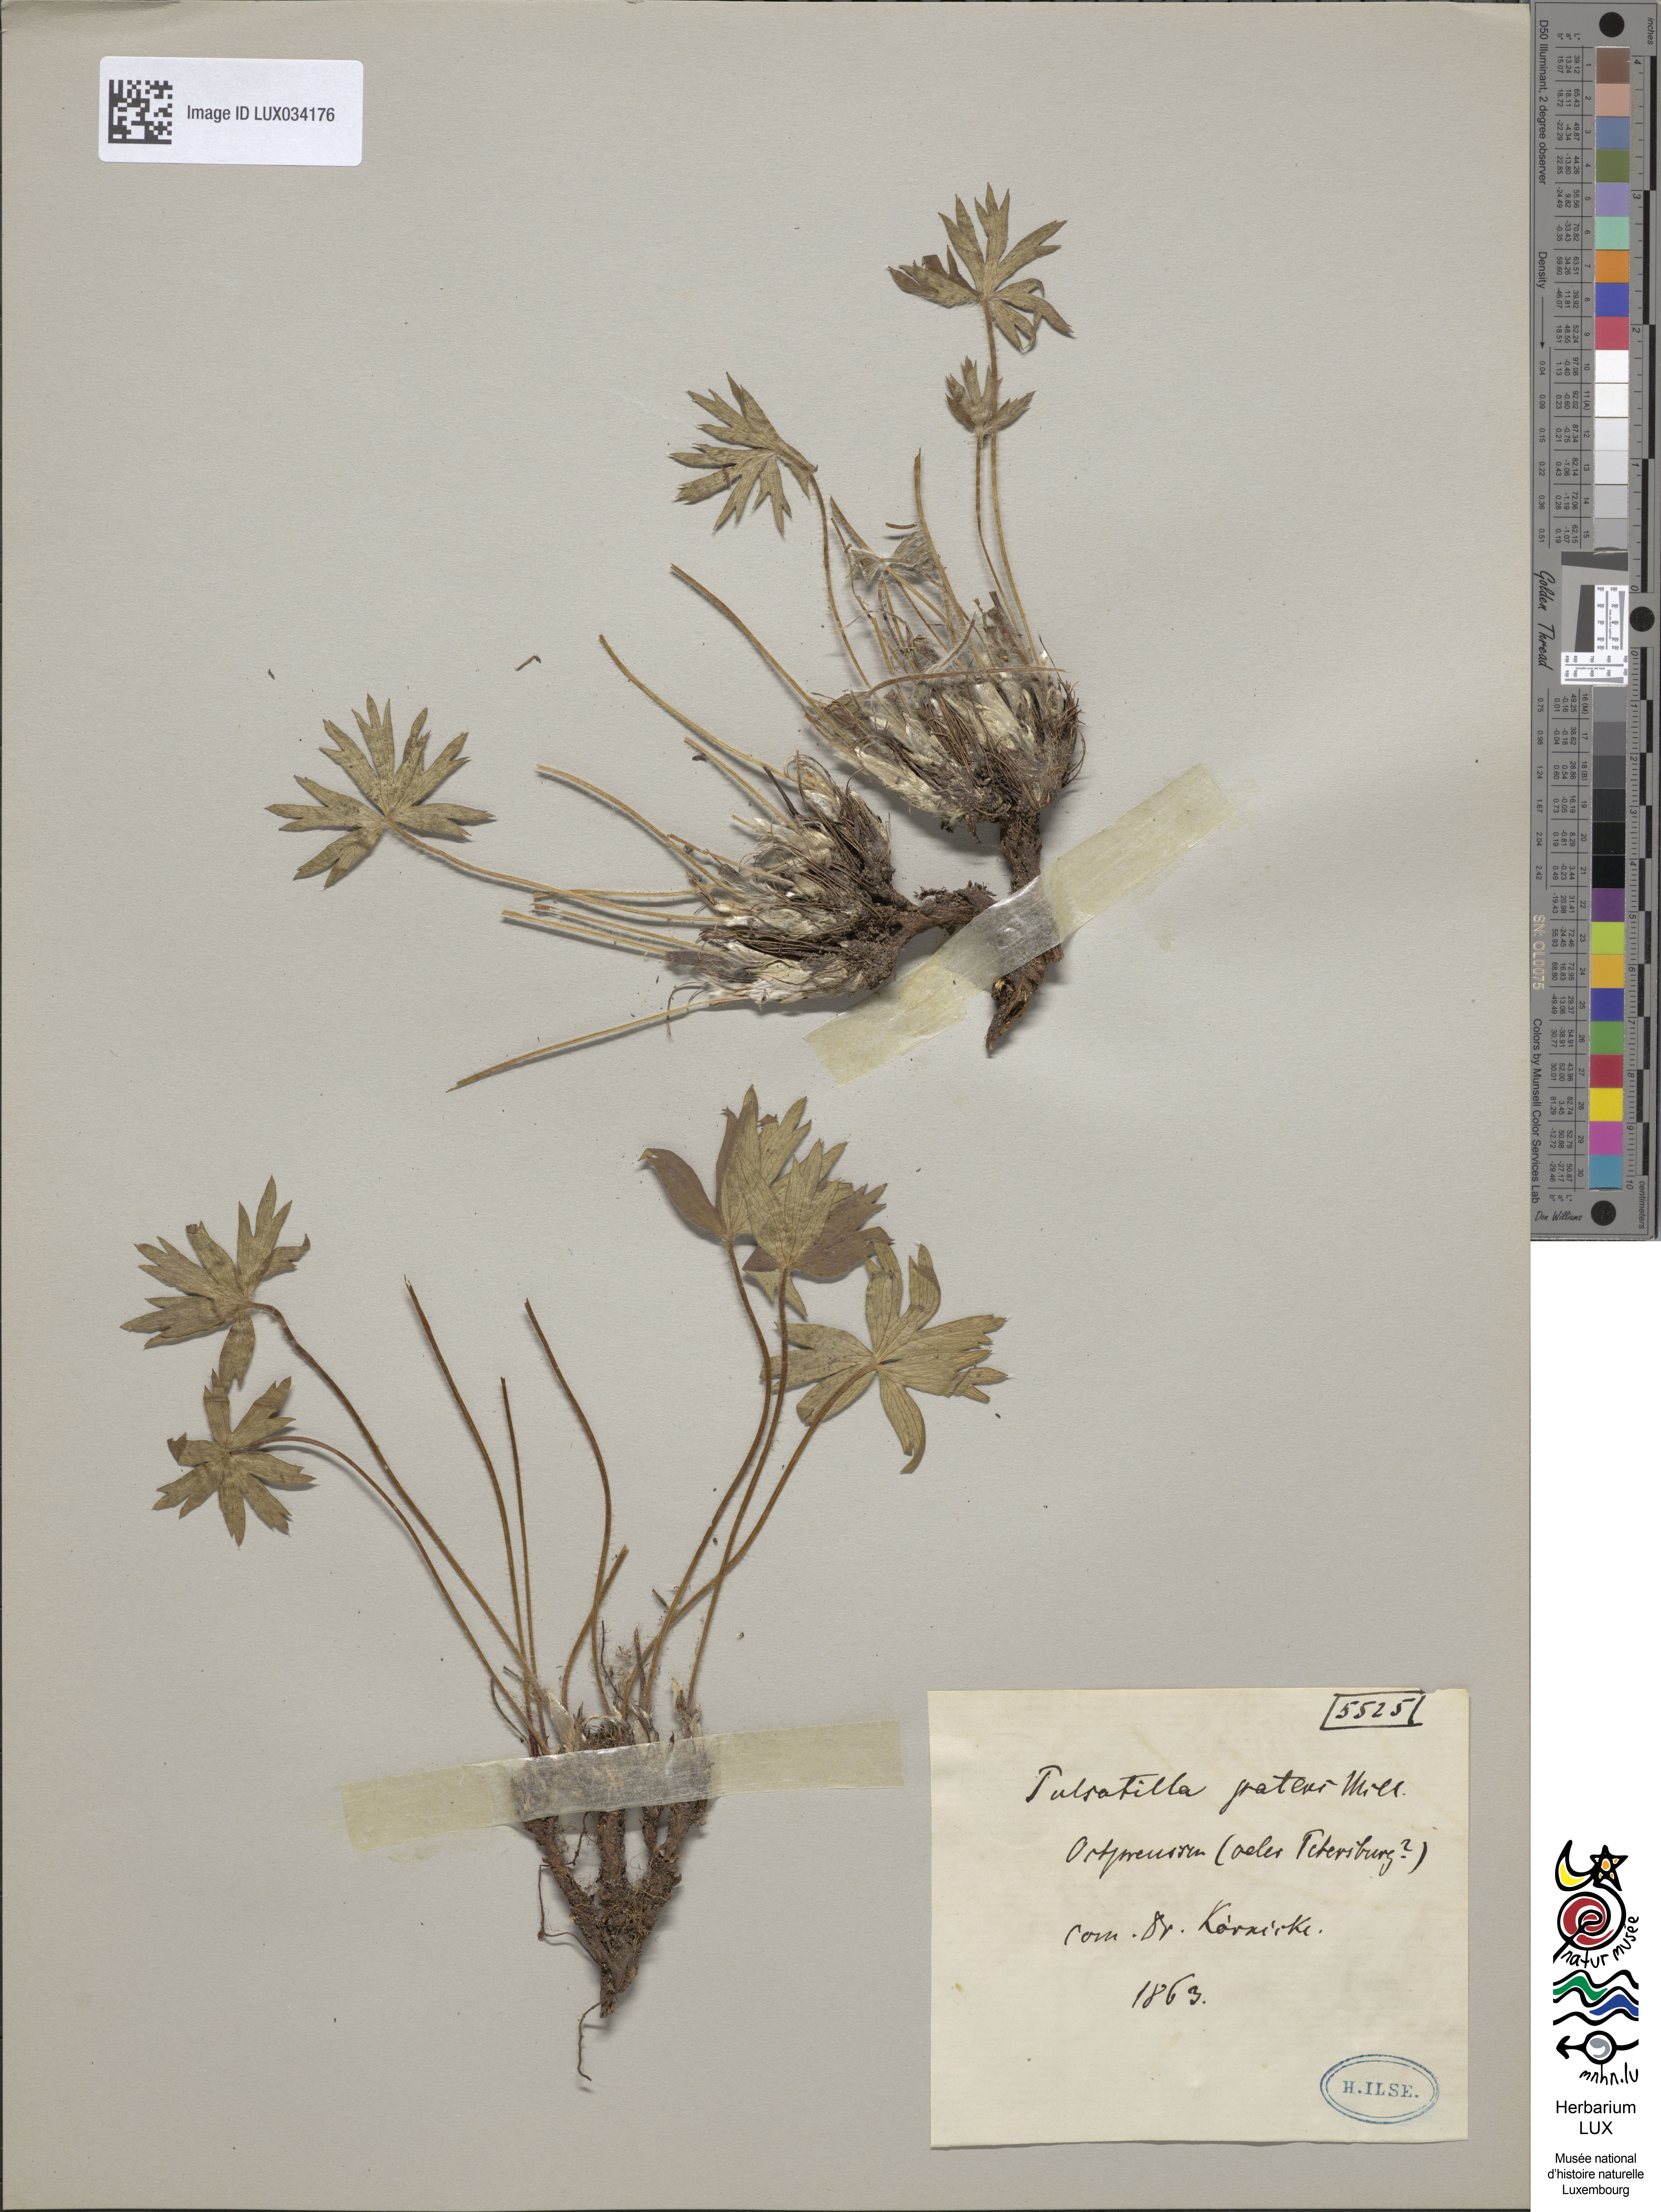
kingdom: Plantae
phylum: Tracheophyta
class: Magnoliopsida
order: Ranunculales
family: Ranunculaceae
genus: Pulsatilla
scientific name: Pulsatilla patens
